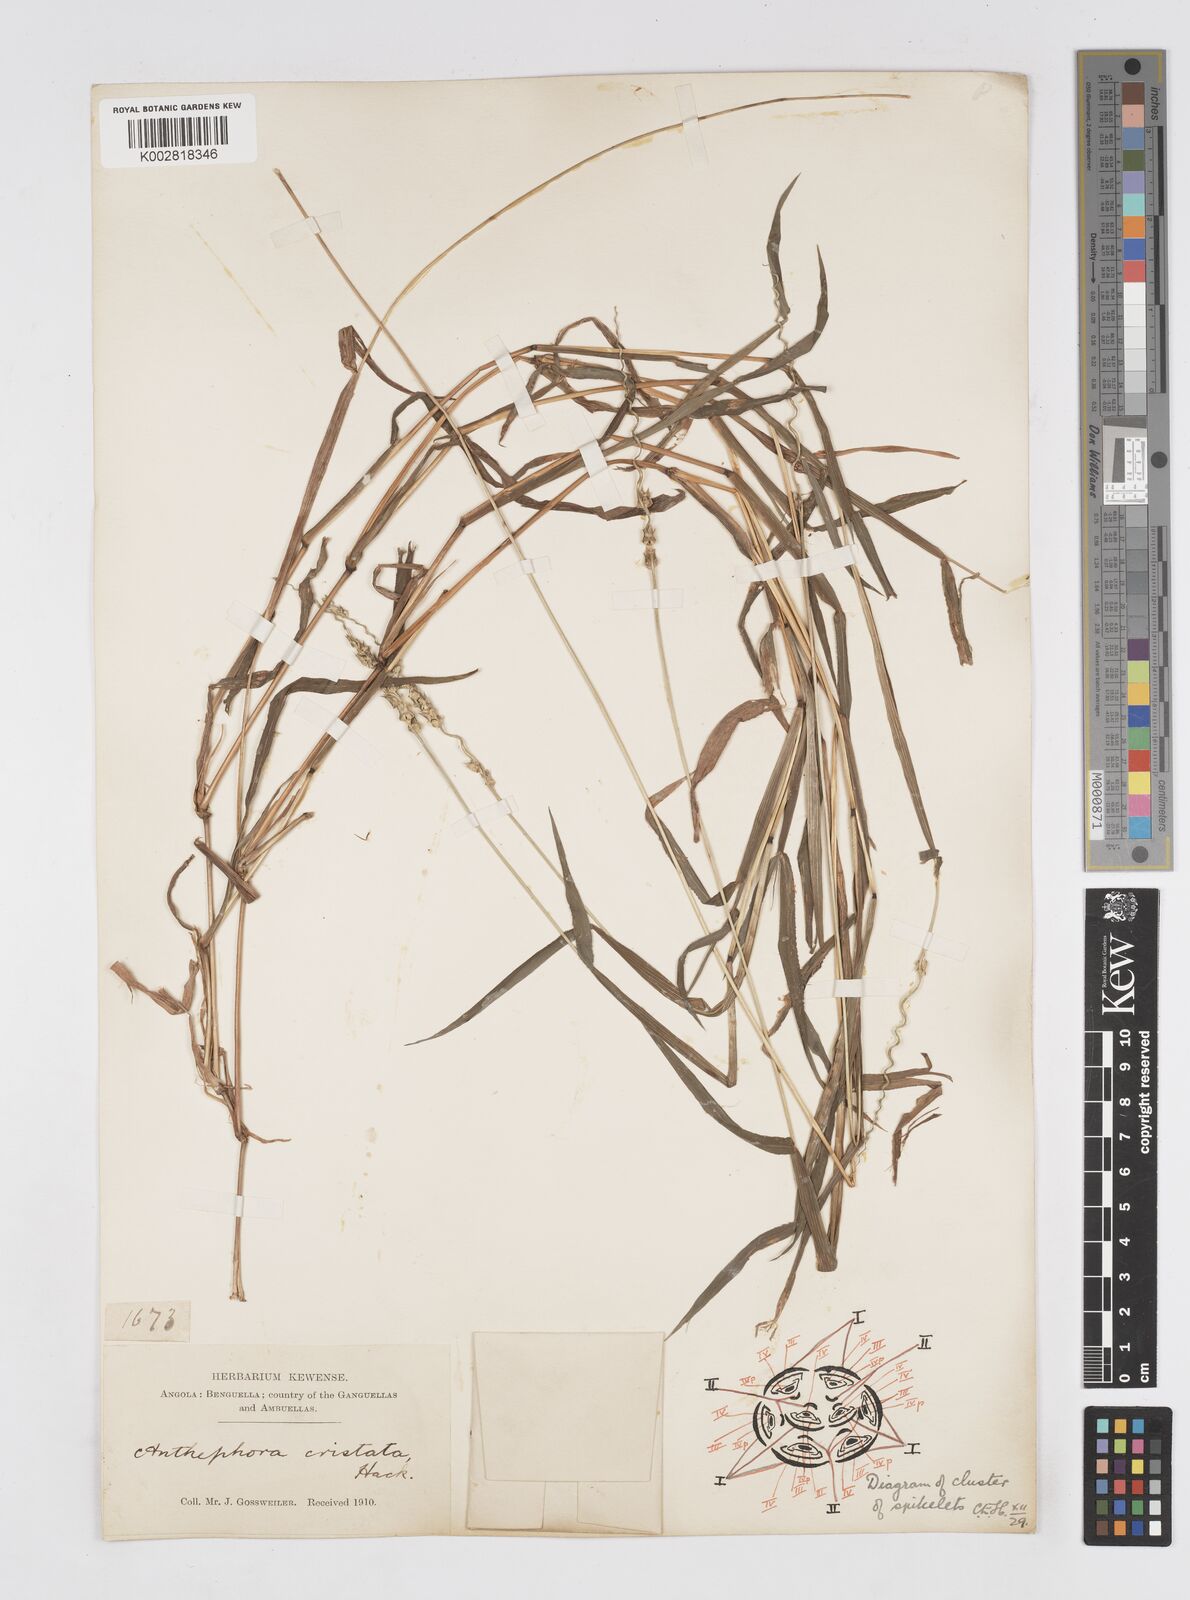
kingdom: Plantae
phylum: Tracheophyta
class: Liliopsida
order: Poales
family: Poaceae
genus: Anthephora
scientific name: Anthephora cristata
